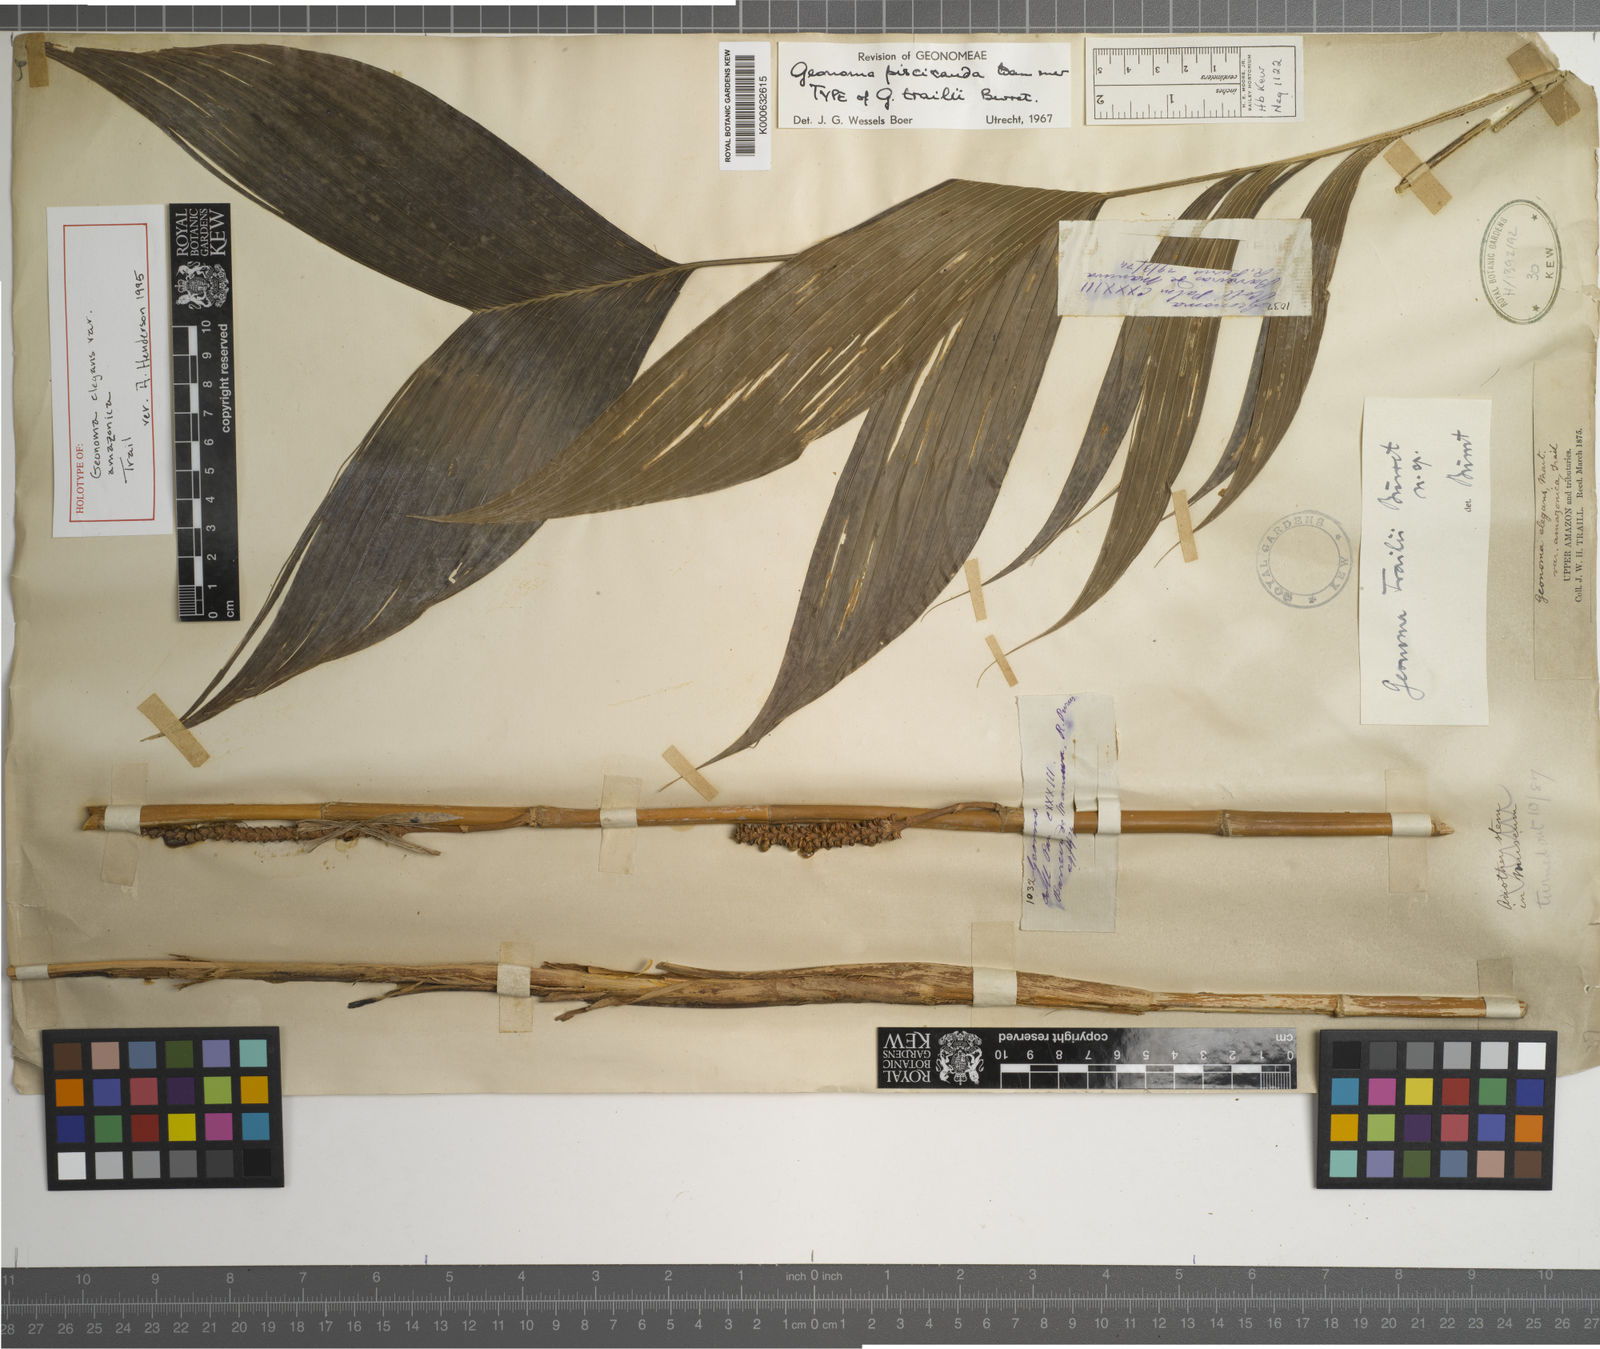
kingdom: Plantae
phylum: Tracheophyta
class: Liliopsida
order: Arecales
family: Arecaceae
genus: Geonoma
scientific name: Geonoma stricta
